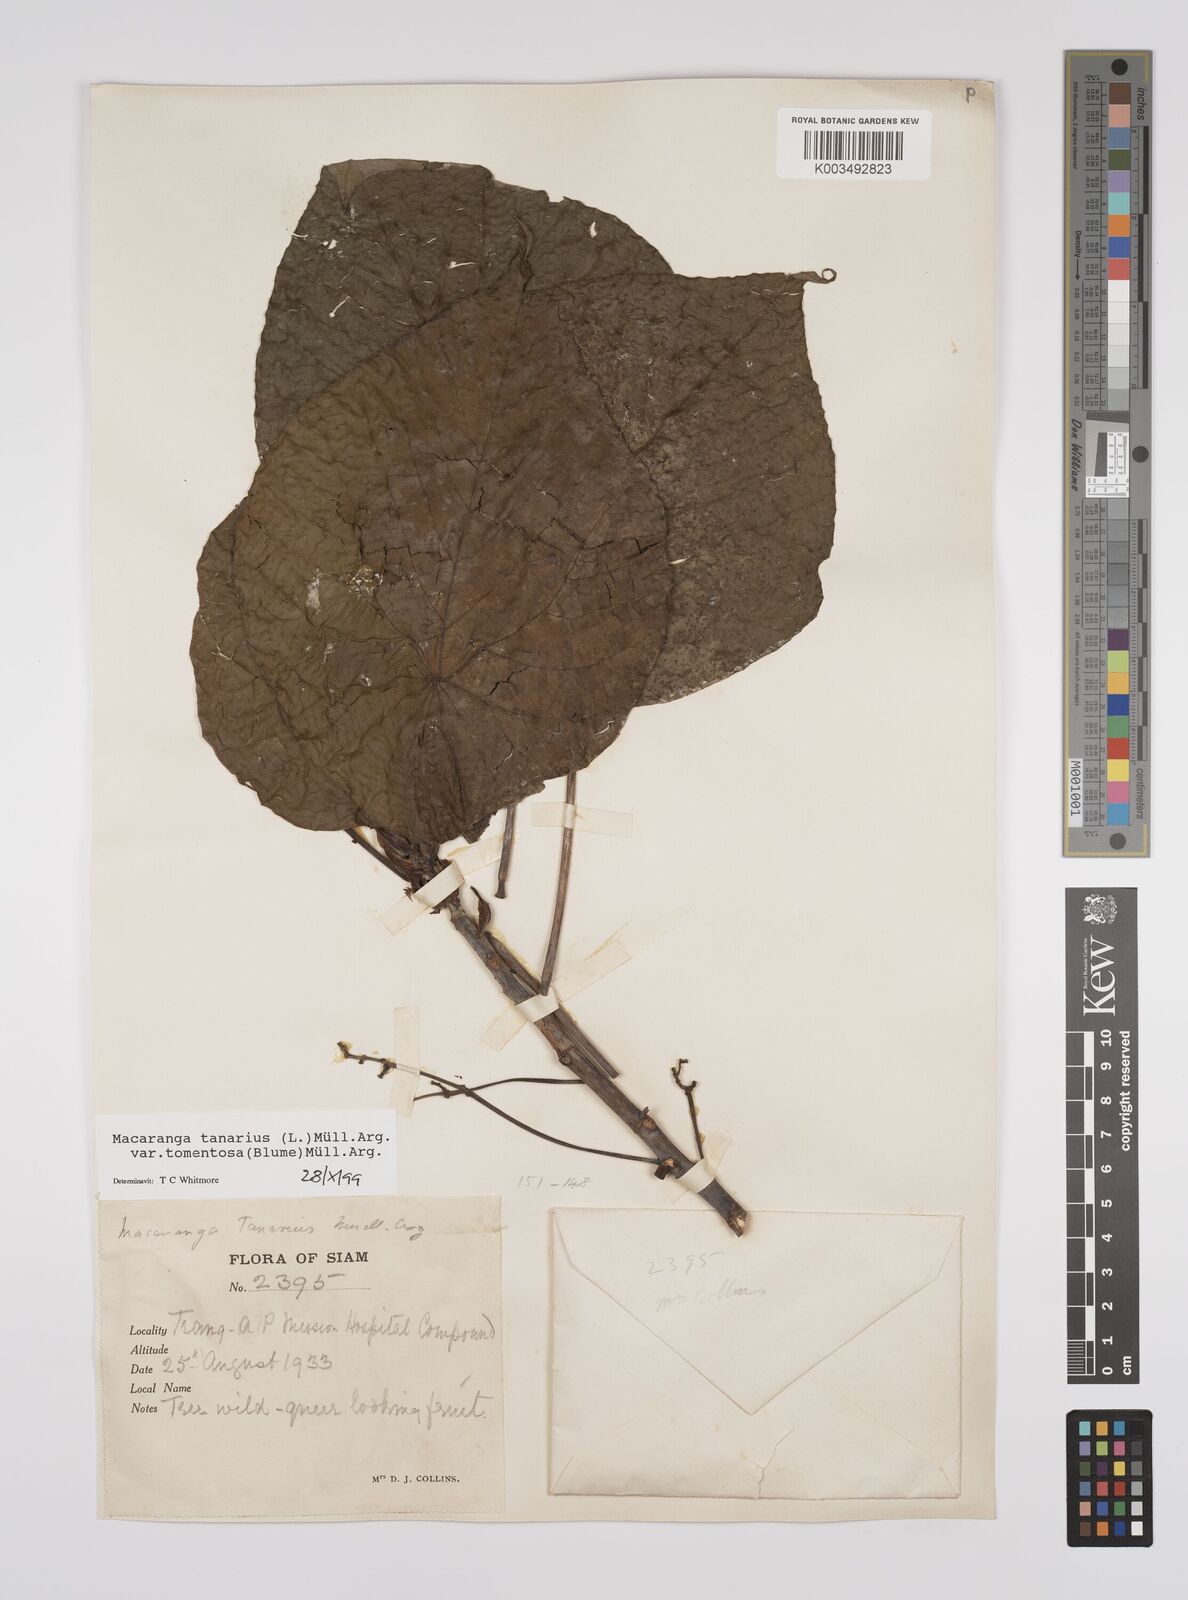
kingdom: Plantae
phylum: Tracheophyta
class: Magnoliopsida
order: Malpighiales
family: Euphorbiaceae
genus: Macaranga
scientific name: Macaranga tanarius
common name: Parasol leaf tree
